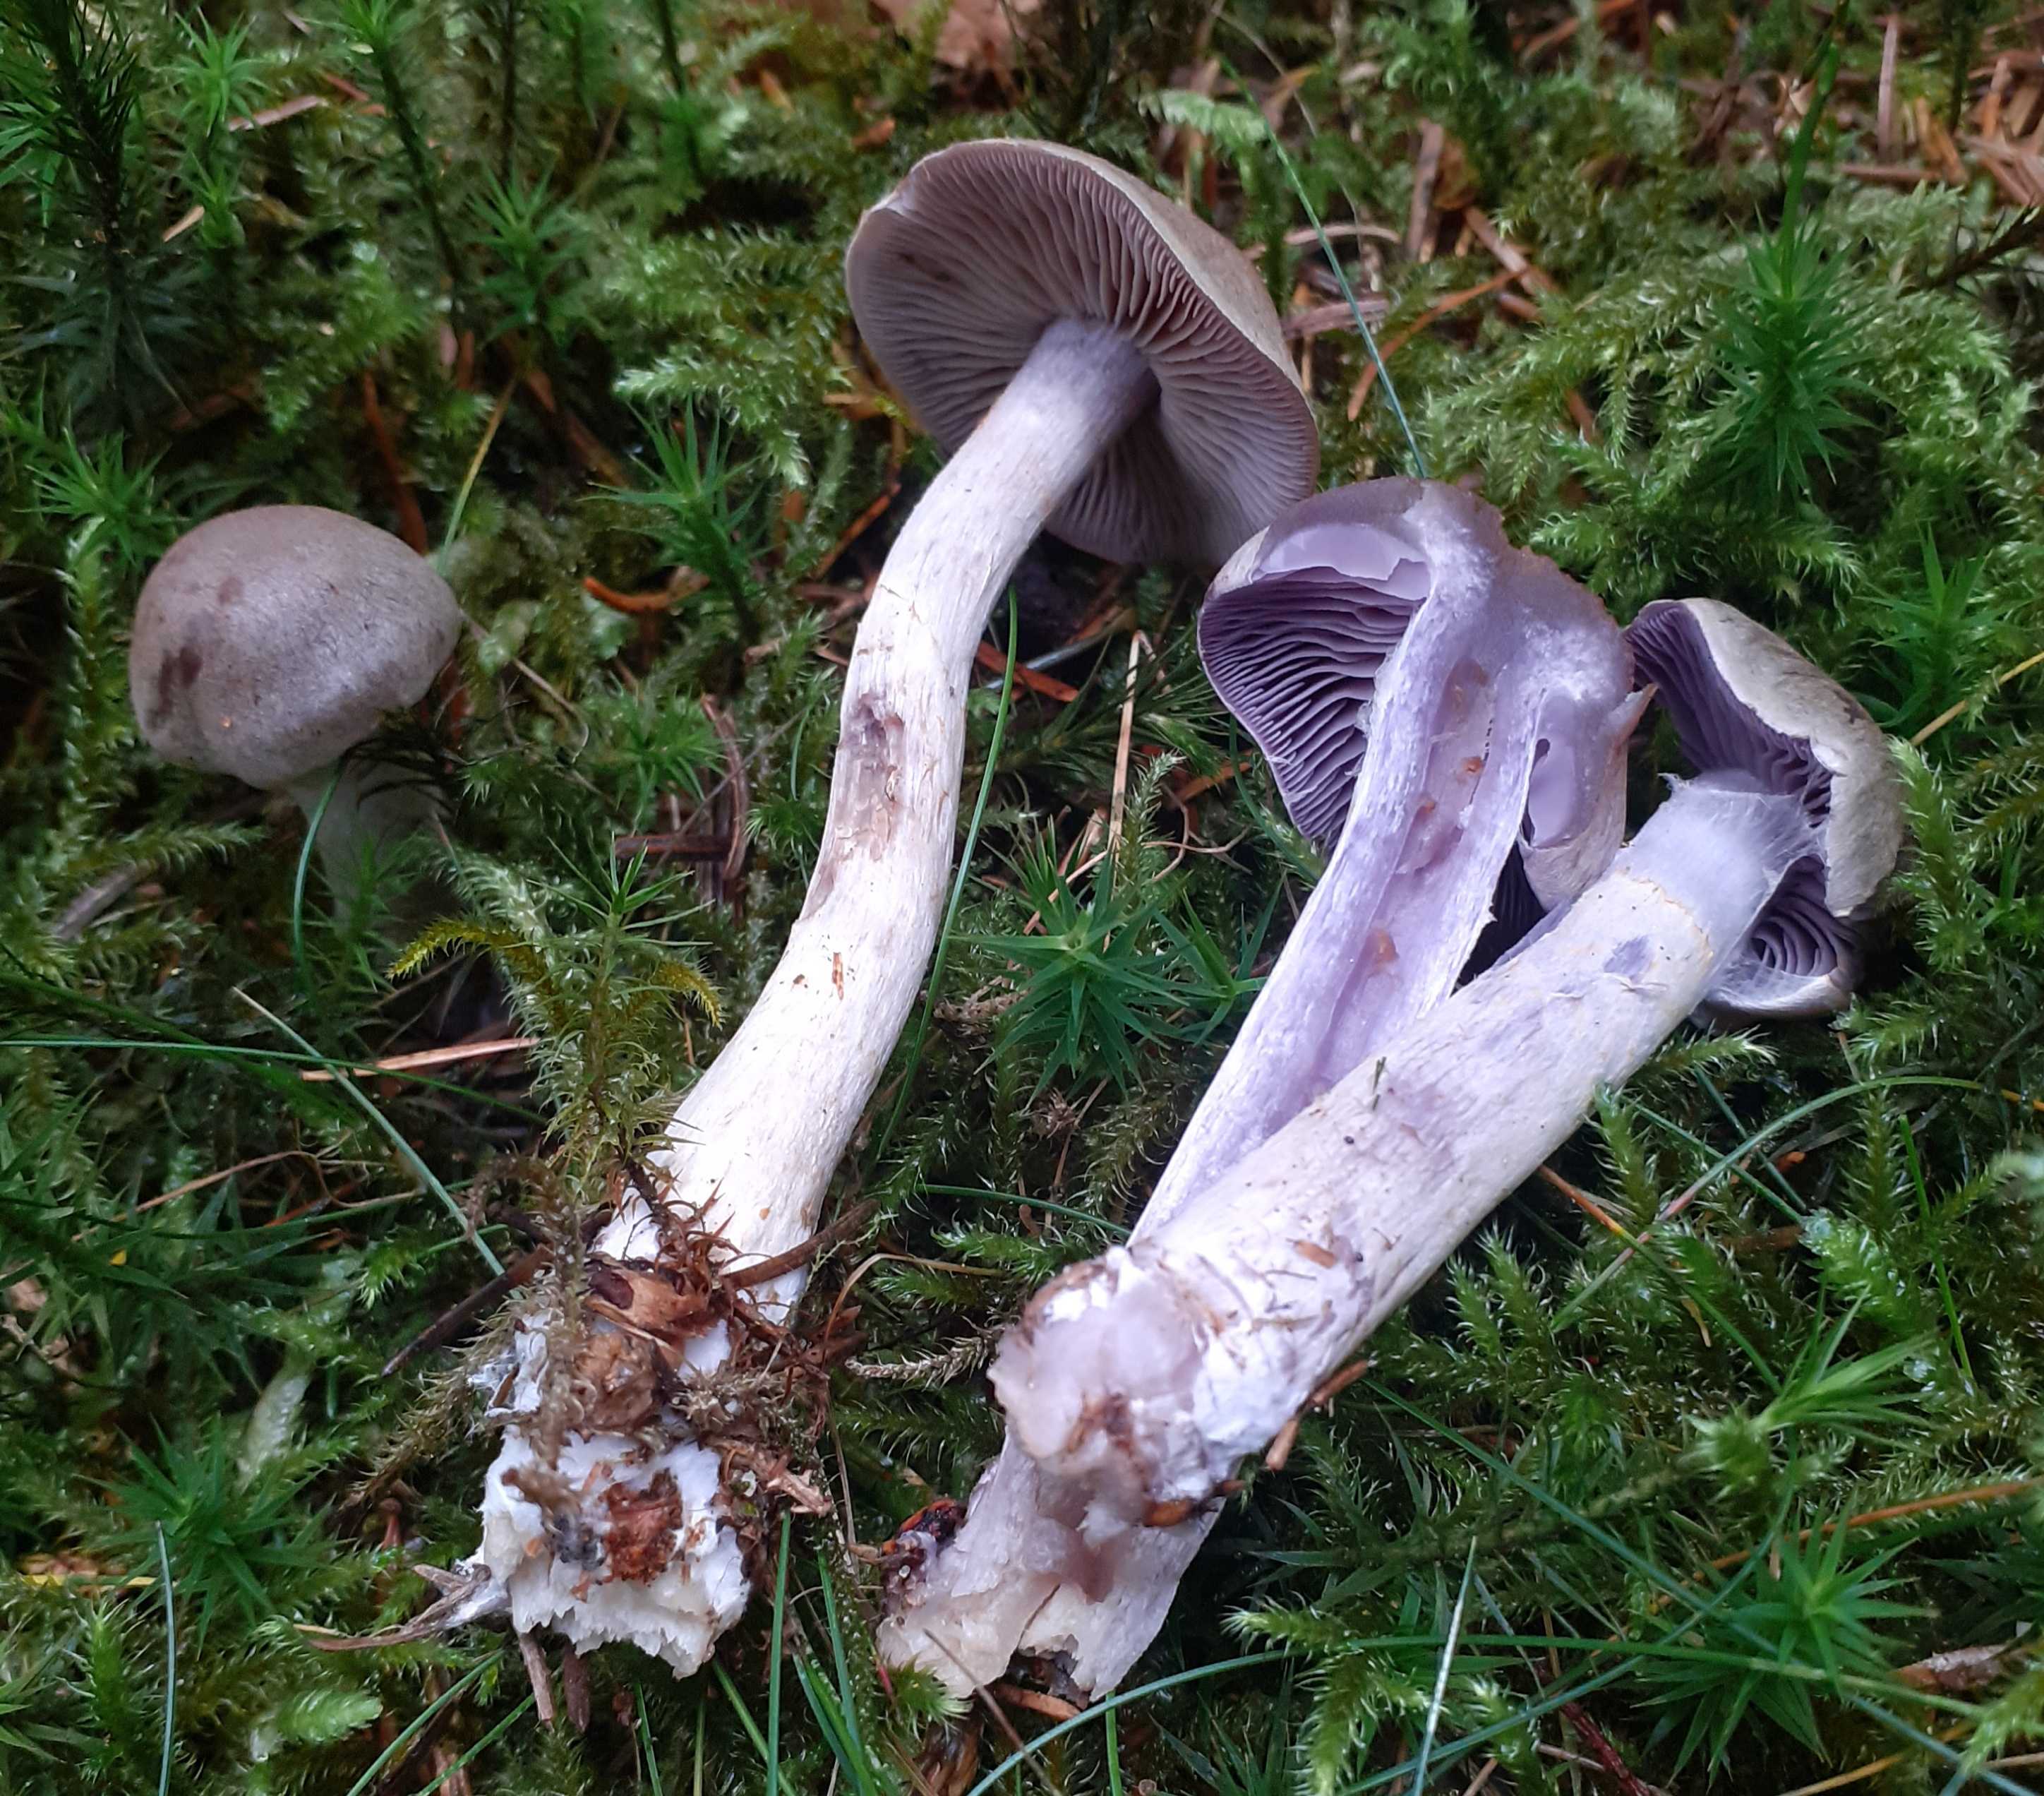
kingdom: Fungi
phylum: Basidiomycota
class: Agaricomycetes
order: Agaricales
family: Cortinariaceae
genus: Cortinarius
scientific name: Cortinarius
